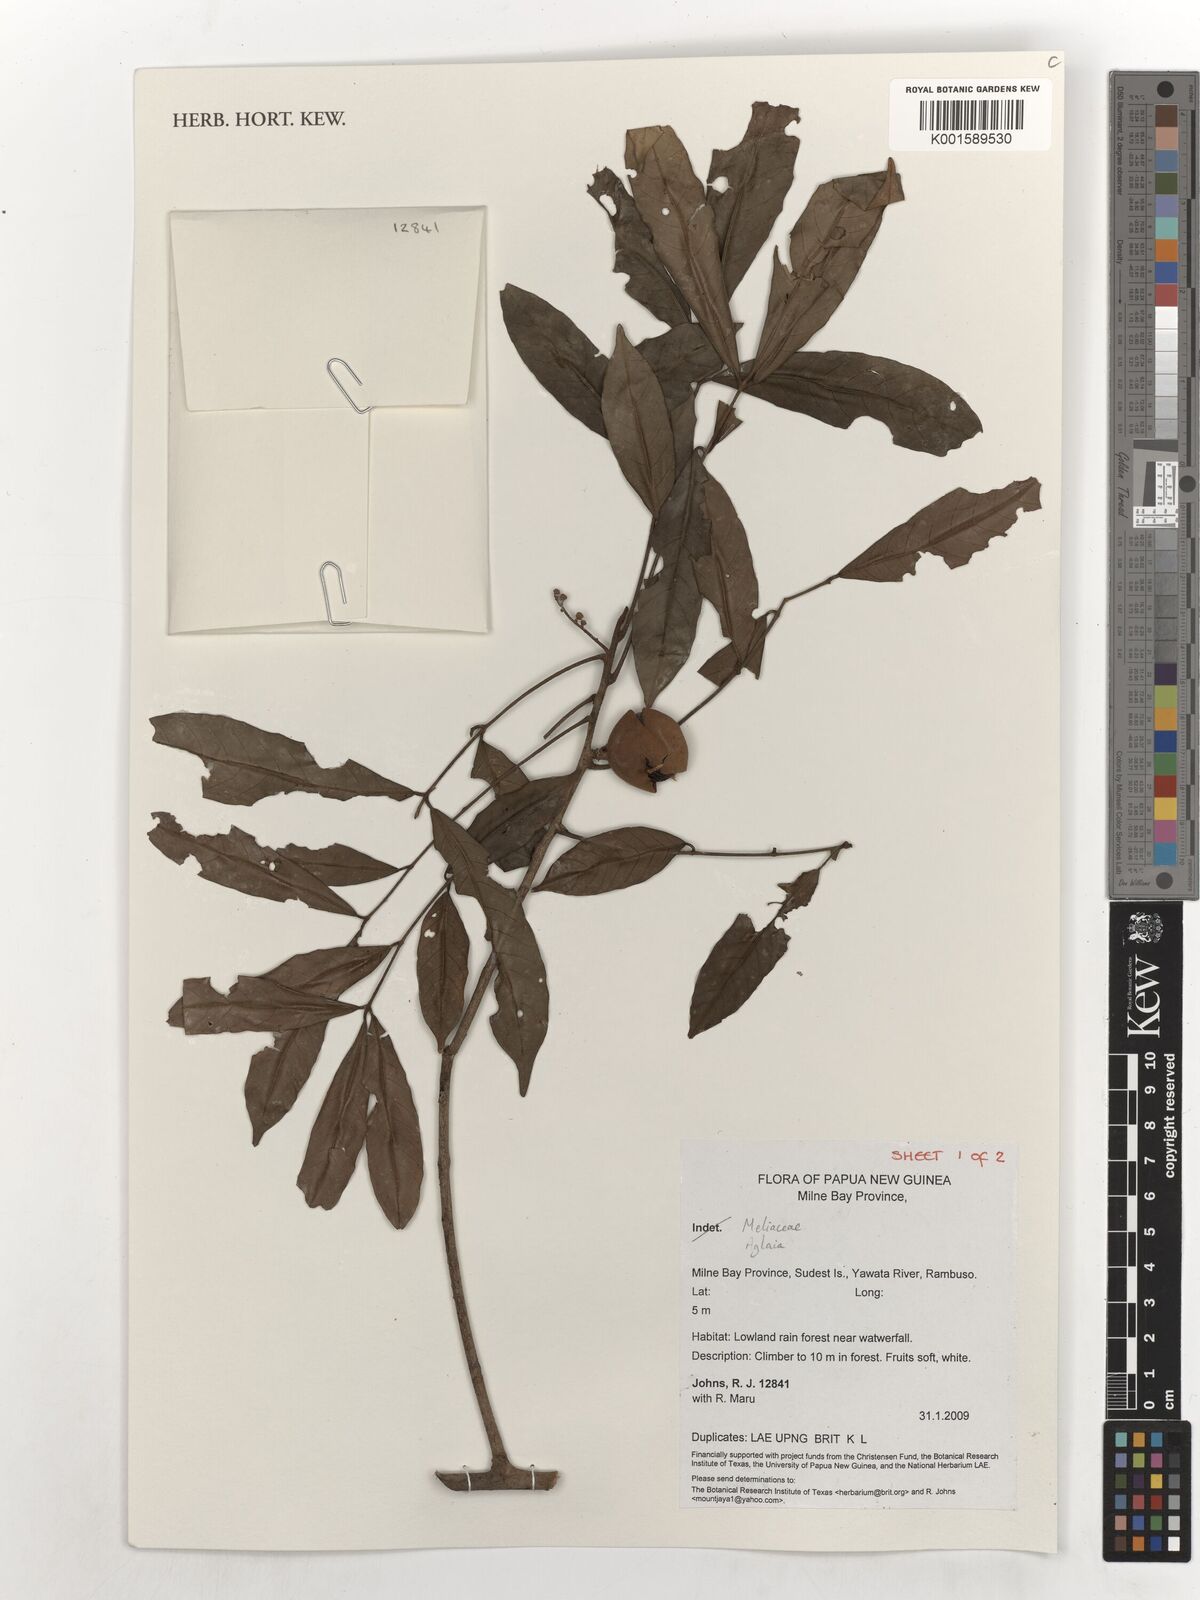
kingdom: Plantae
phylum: Tracheophyta
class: Magnoliopsida
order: Sapindales
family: Meliaceae
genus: Aglaia
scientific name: Aglaia
